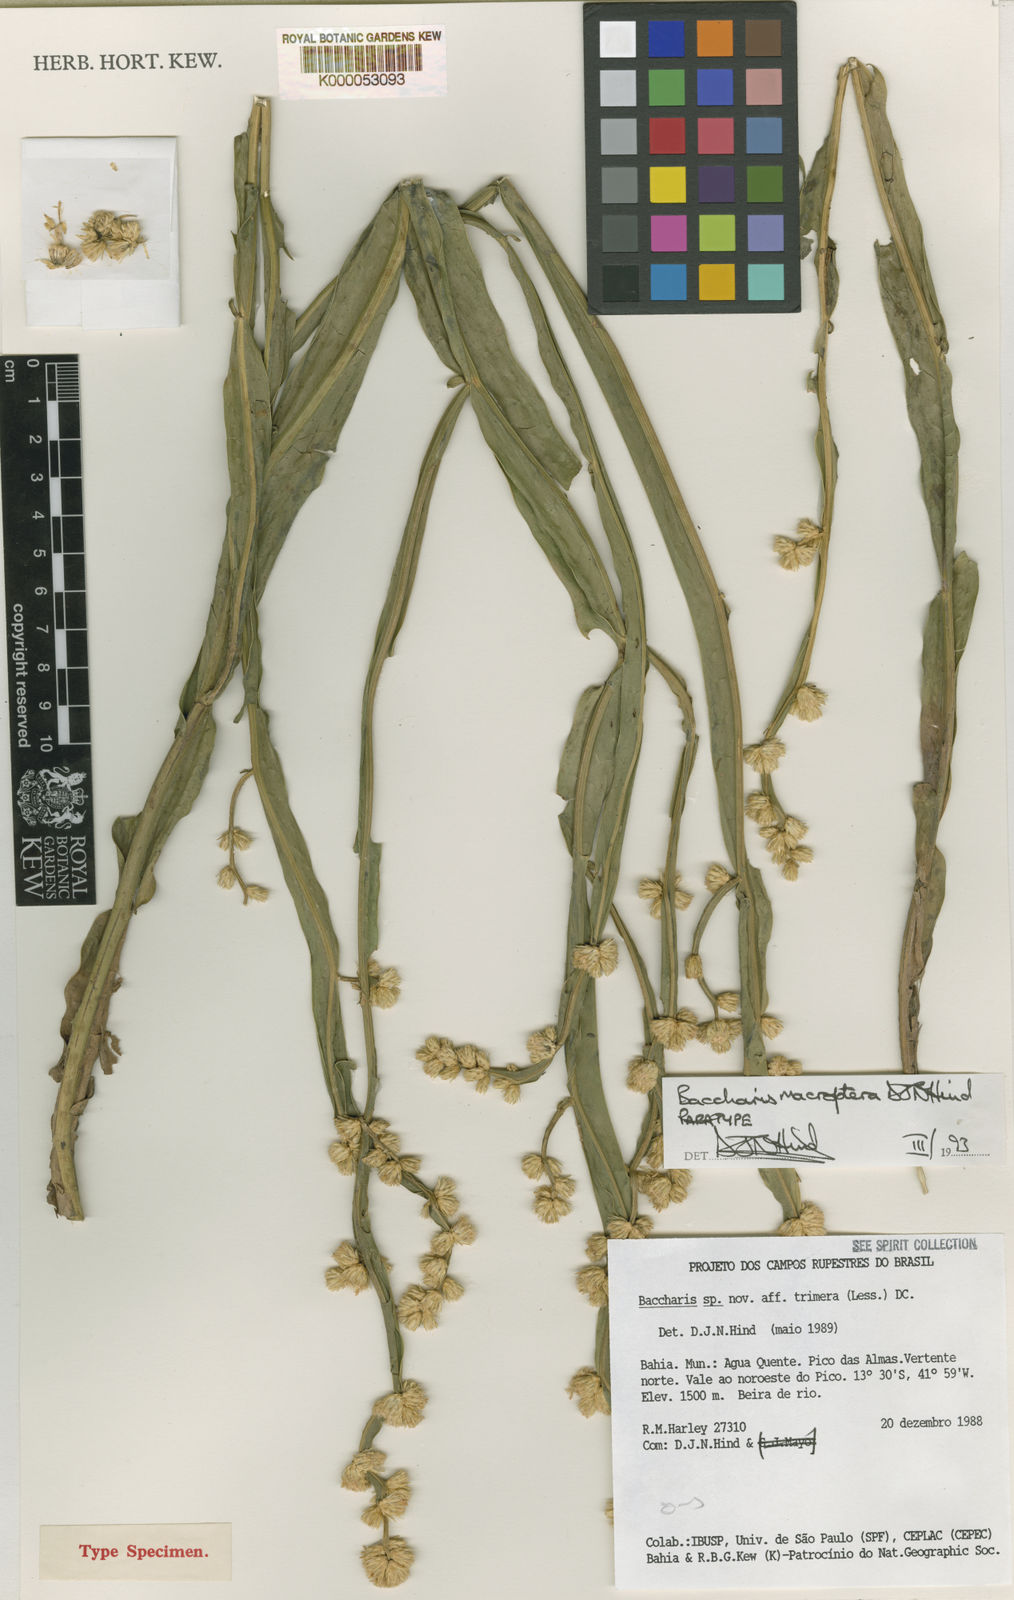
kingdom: Plantae
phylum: Tracheophyta
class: Magnoliopsida
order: Asterales
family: Asteraceae
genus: Baccharis
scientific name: Baccharis sagittalis
